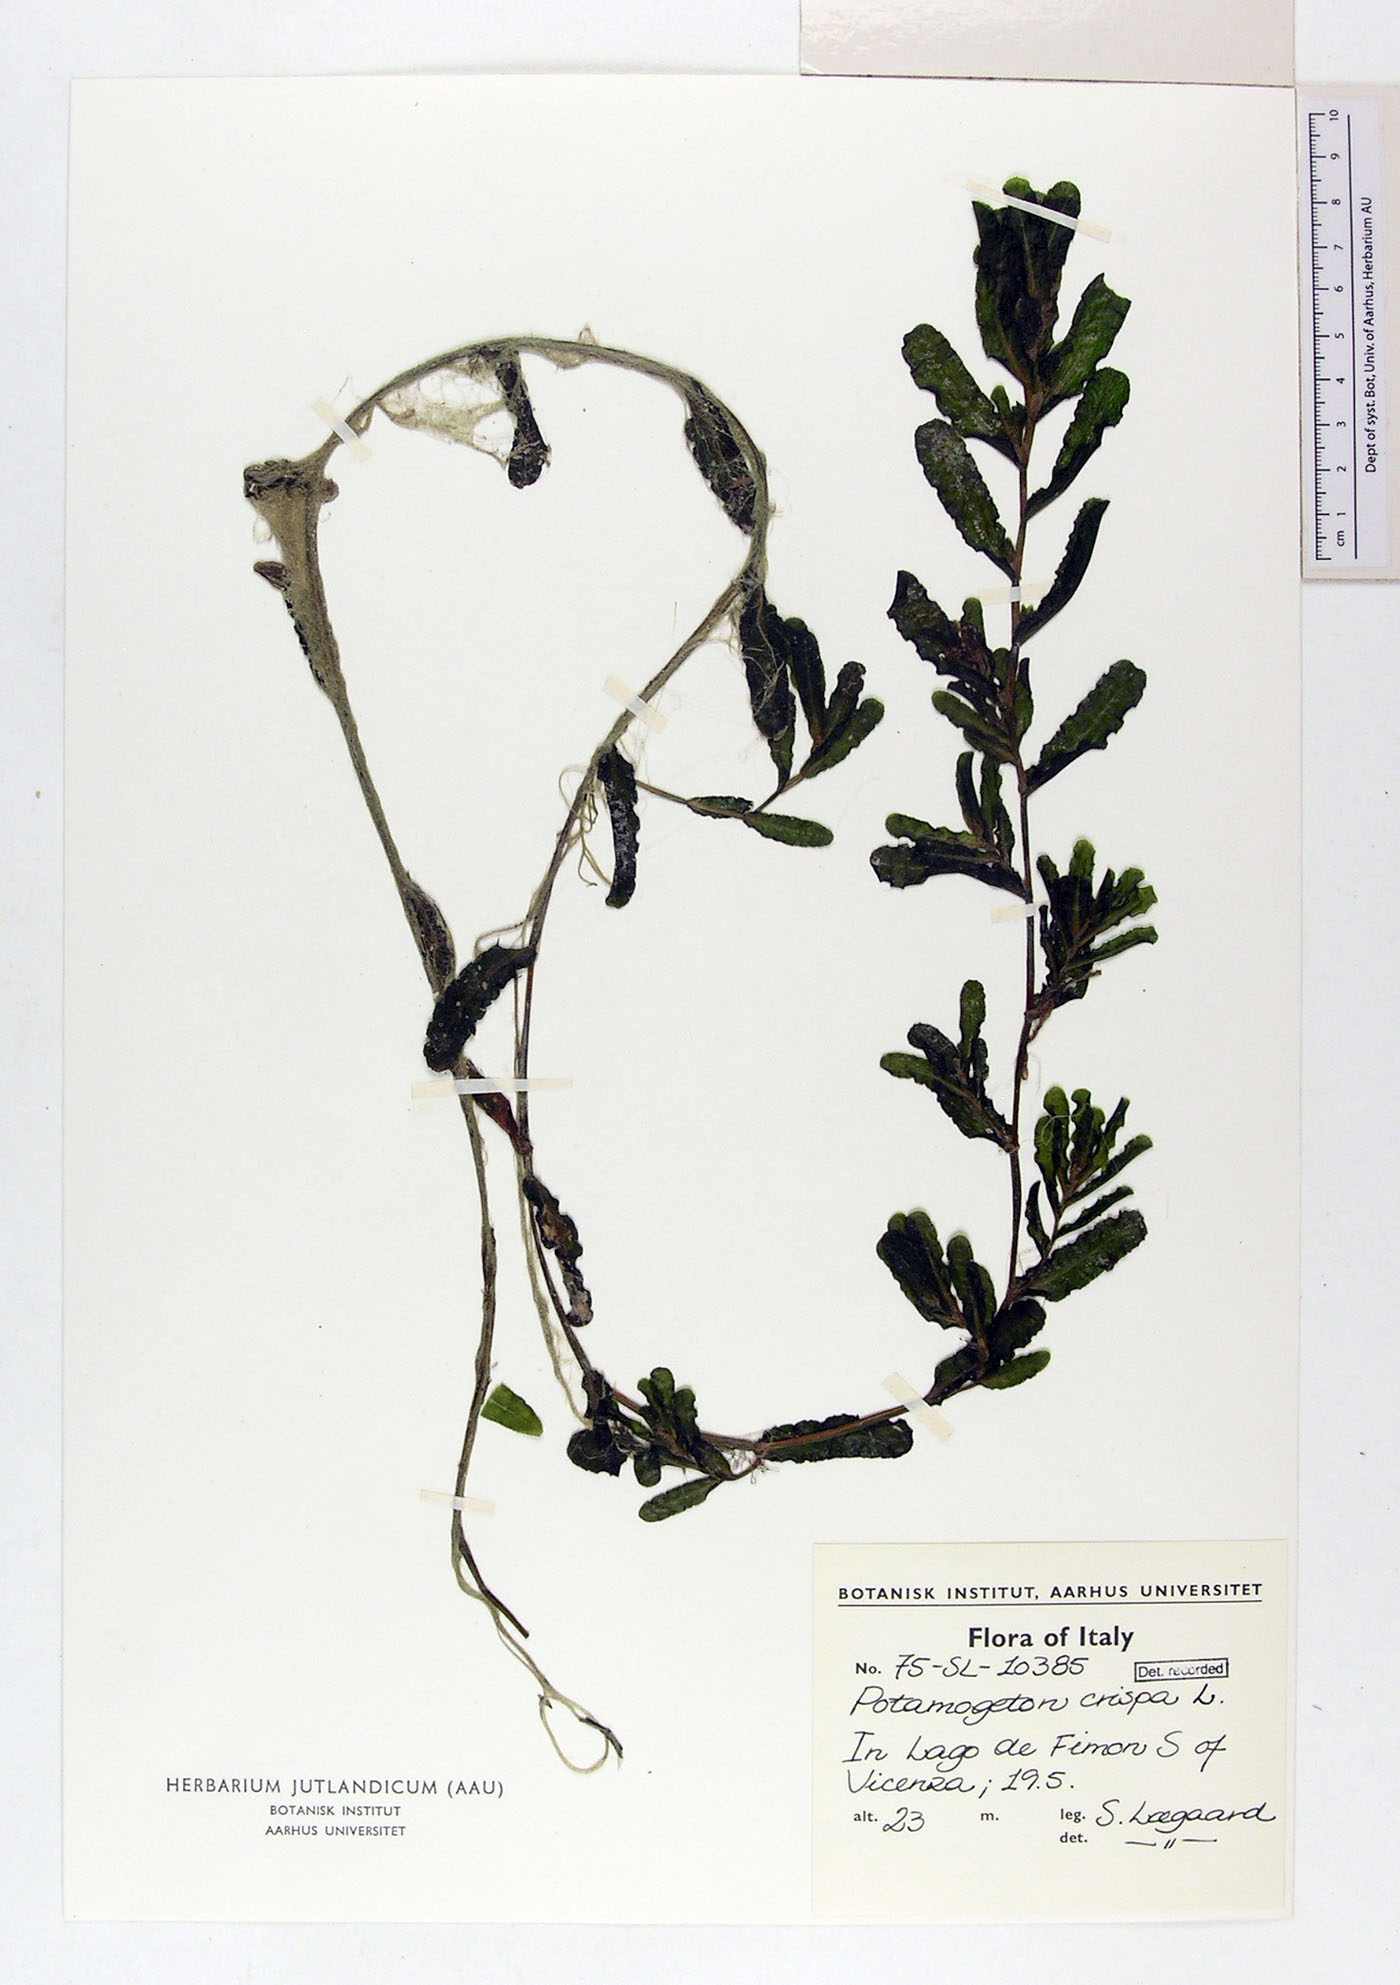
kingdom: Plantae
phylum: Tracheophyta
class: Liliopsida
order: Alismatales
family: Potamogetonaceae
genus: Potamogeton
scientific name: Potamogeton crispus
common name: Curled pondweed
